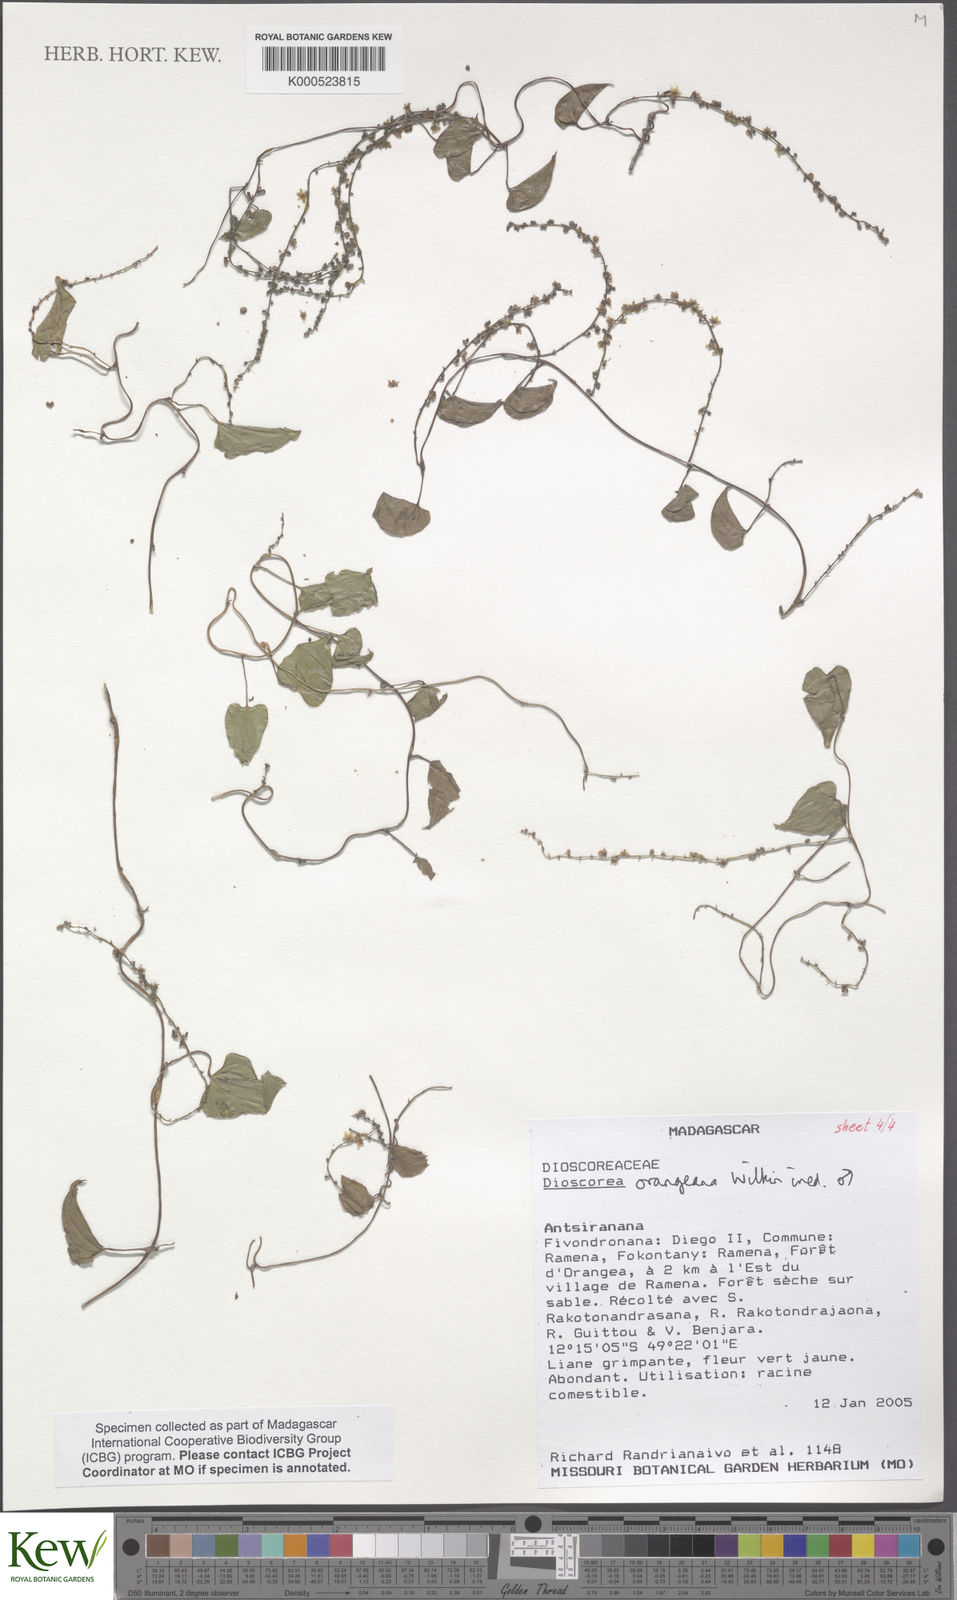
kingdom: Plantae
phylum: Tracheophyta
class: Liliopsida
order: Dioscoreales
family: Dioscoreaceae
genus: Dioscorea
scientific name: Dioscorea orangeana
